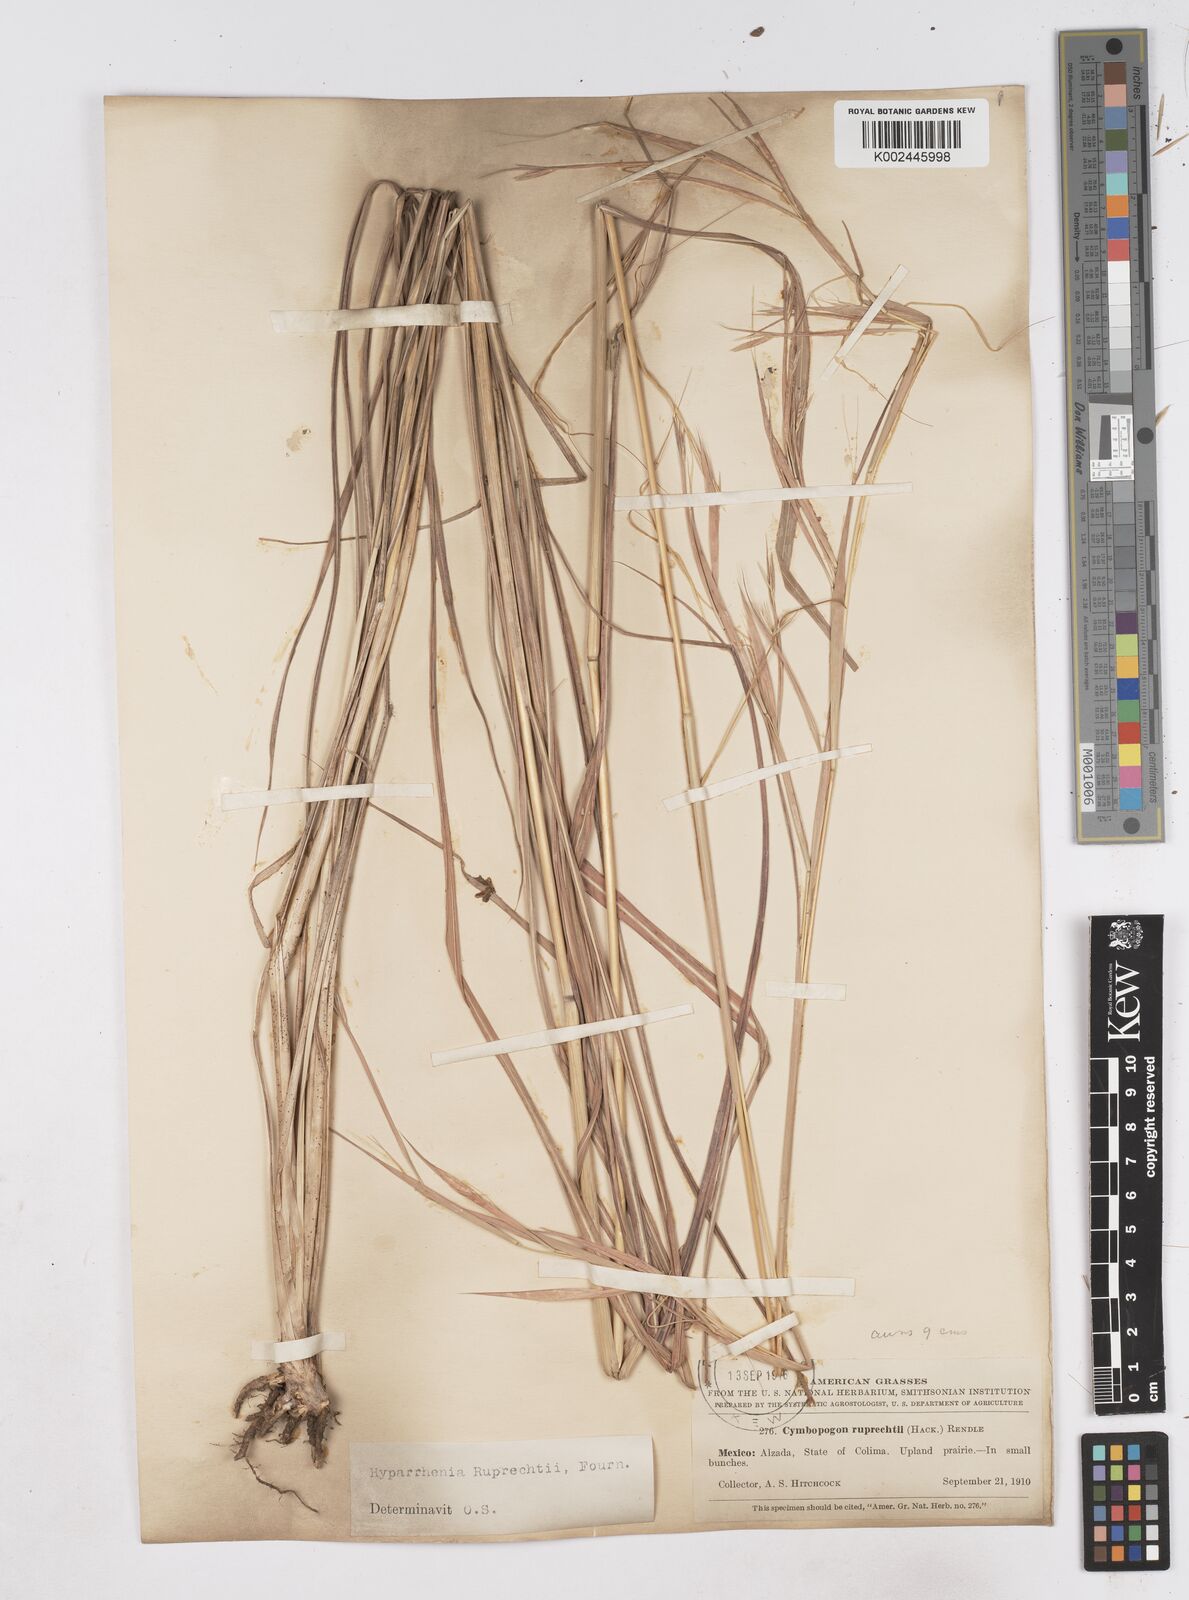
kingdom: Plantae
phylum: Tracheophyta
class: Liliopsida
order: Poales
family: Poaceae
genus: Hyperthelia
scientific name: Hyperthelia dissoluta
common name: Yellow thatching grass
